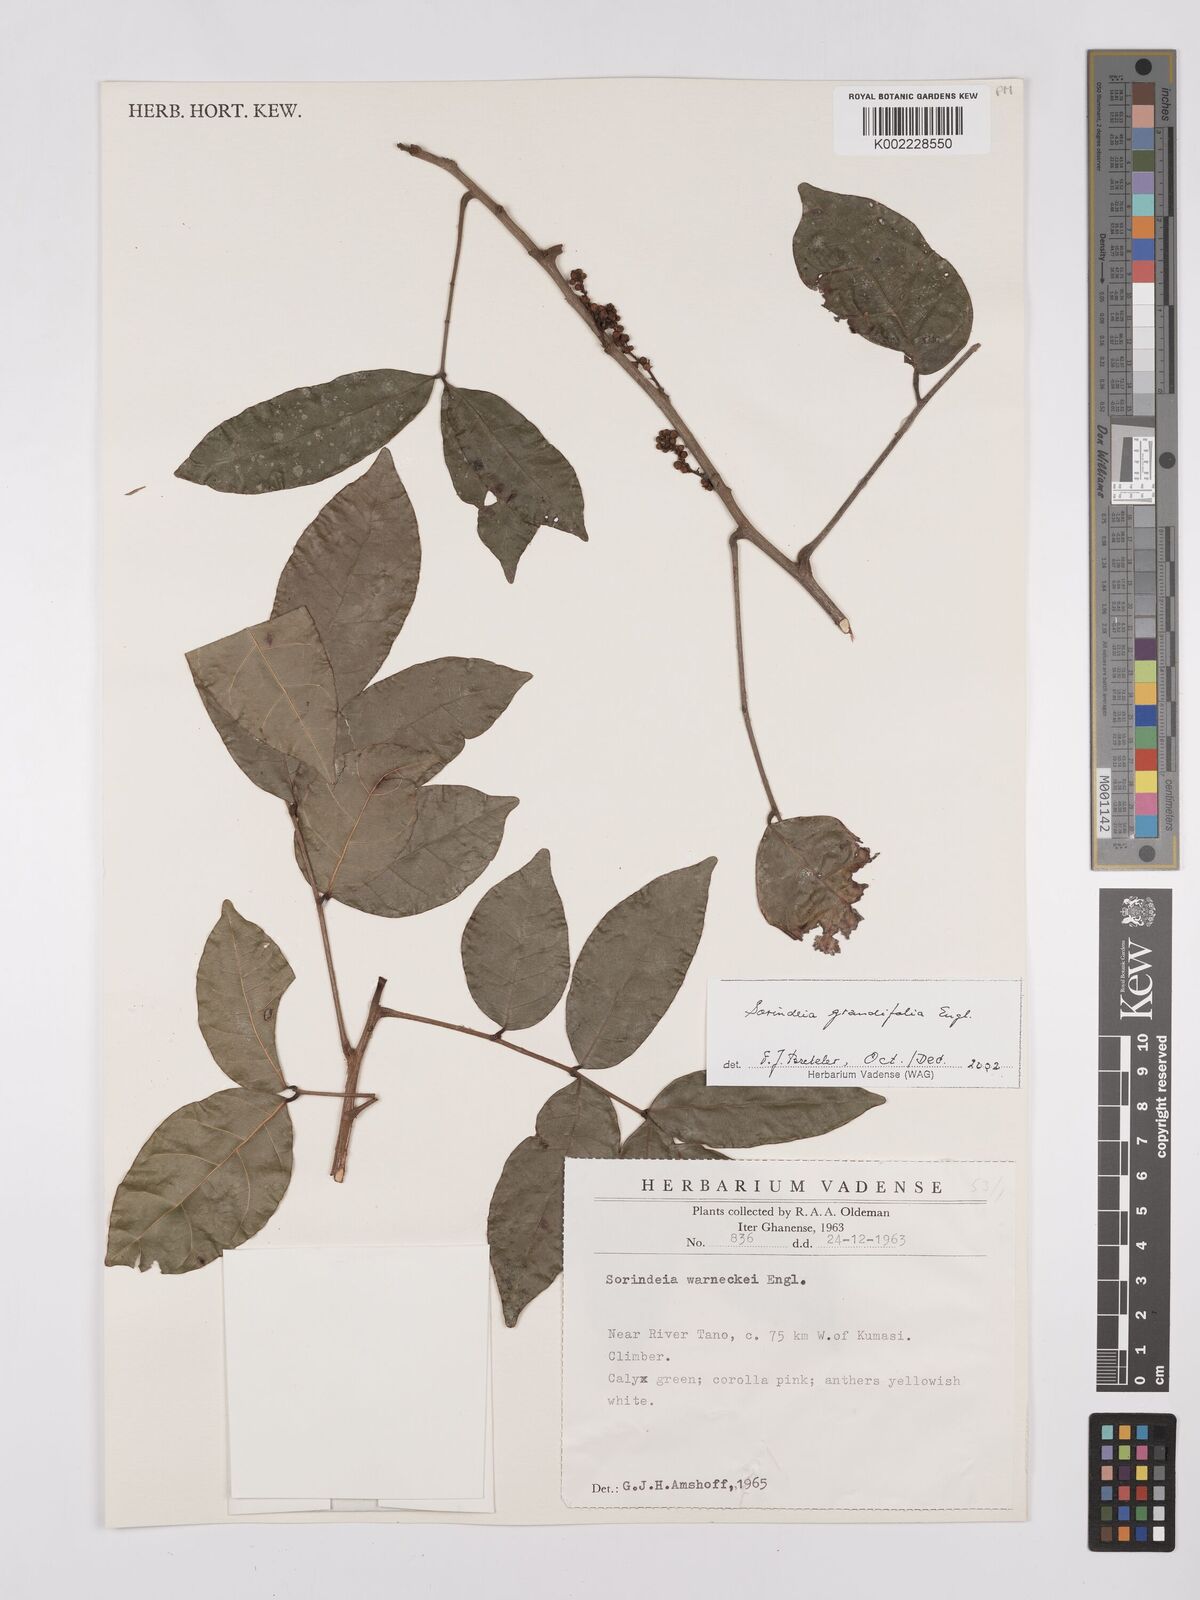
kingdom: Plantae
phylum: Tracheophyta
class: Magnoliopsida
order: Sapindales
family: Anacardiaceae
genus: Sorindeia
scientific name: Sorindeia grandifolia
